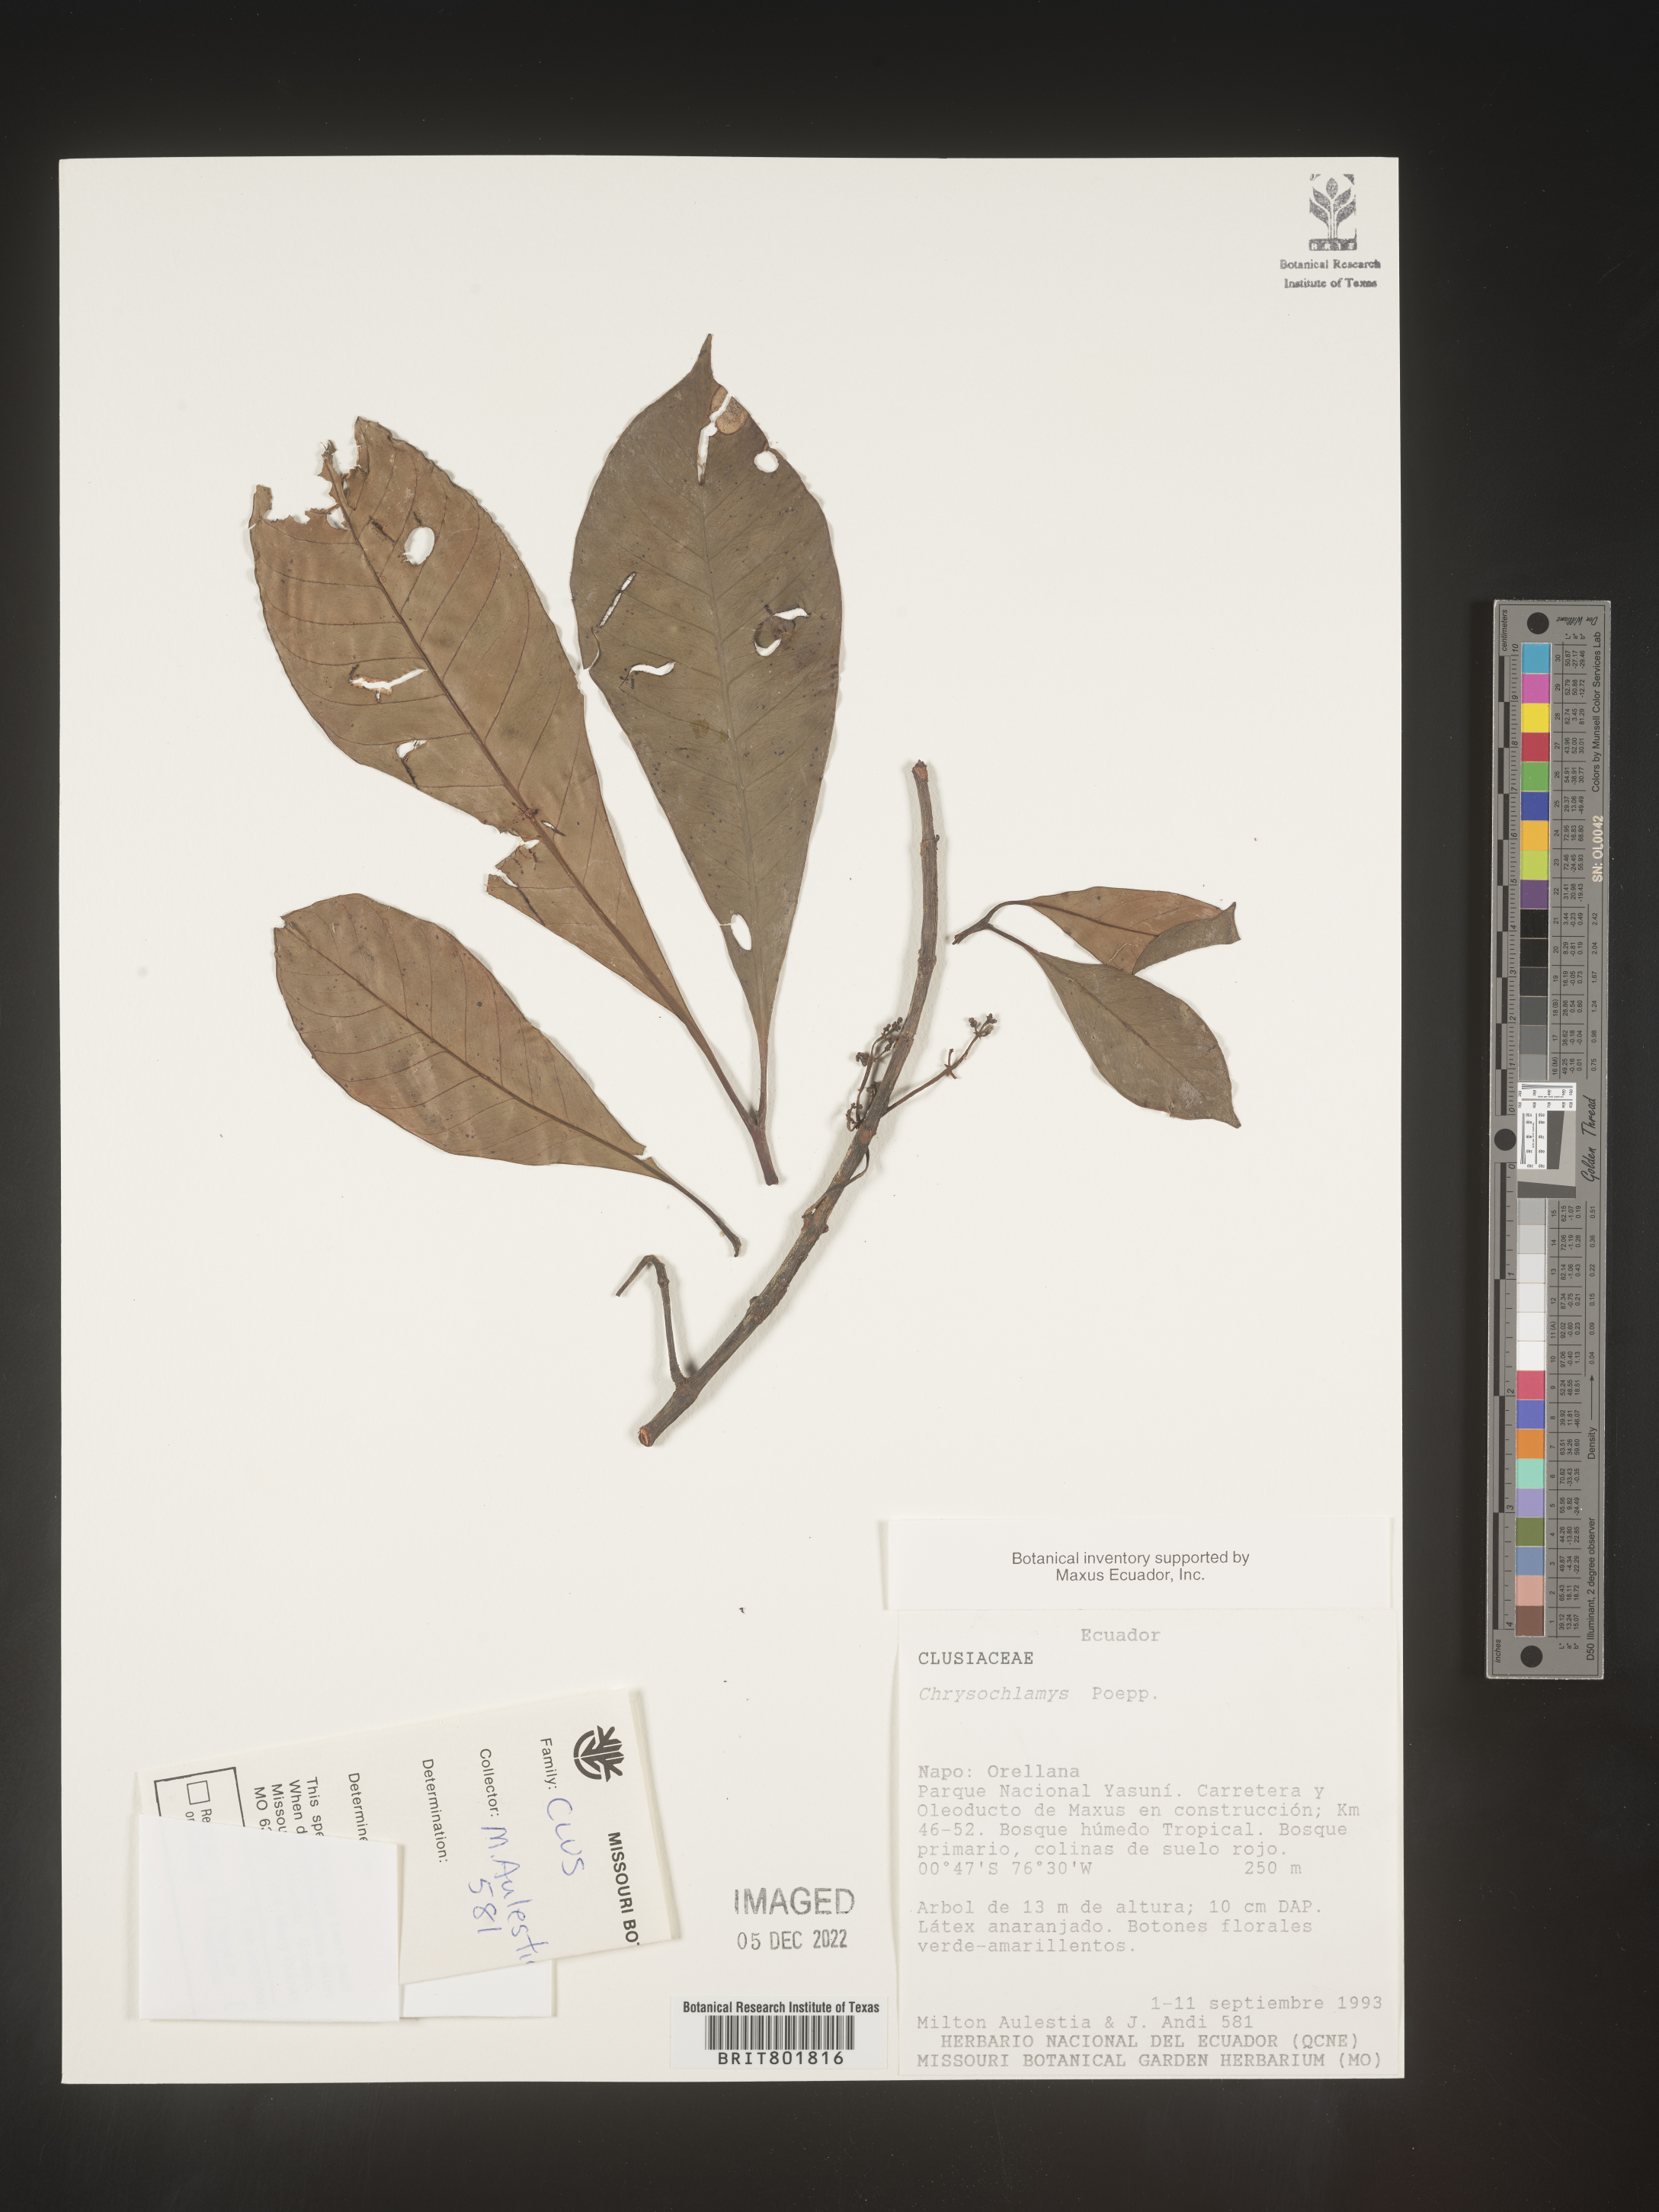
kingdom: Plantae
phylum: Tracheophyta
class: Magnoliopsida
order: Malpighiales
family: Clusiaceae
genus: Chrysochlamys
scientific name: Chrysochlamys
